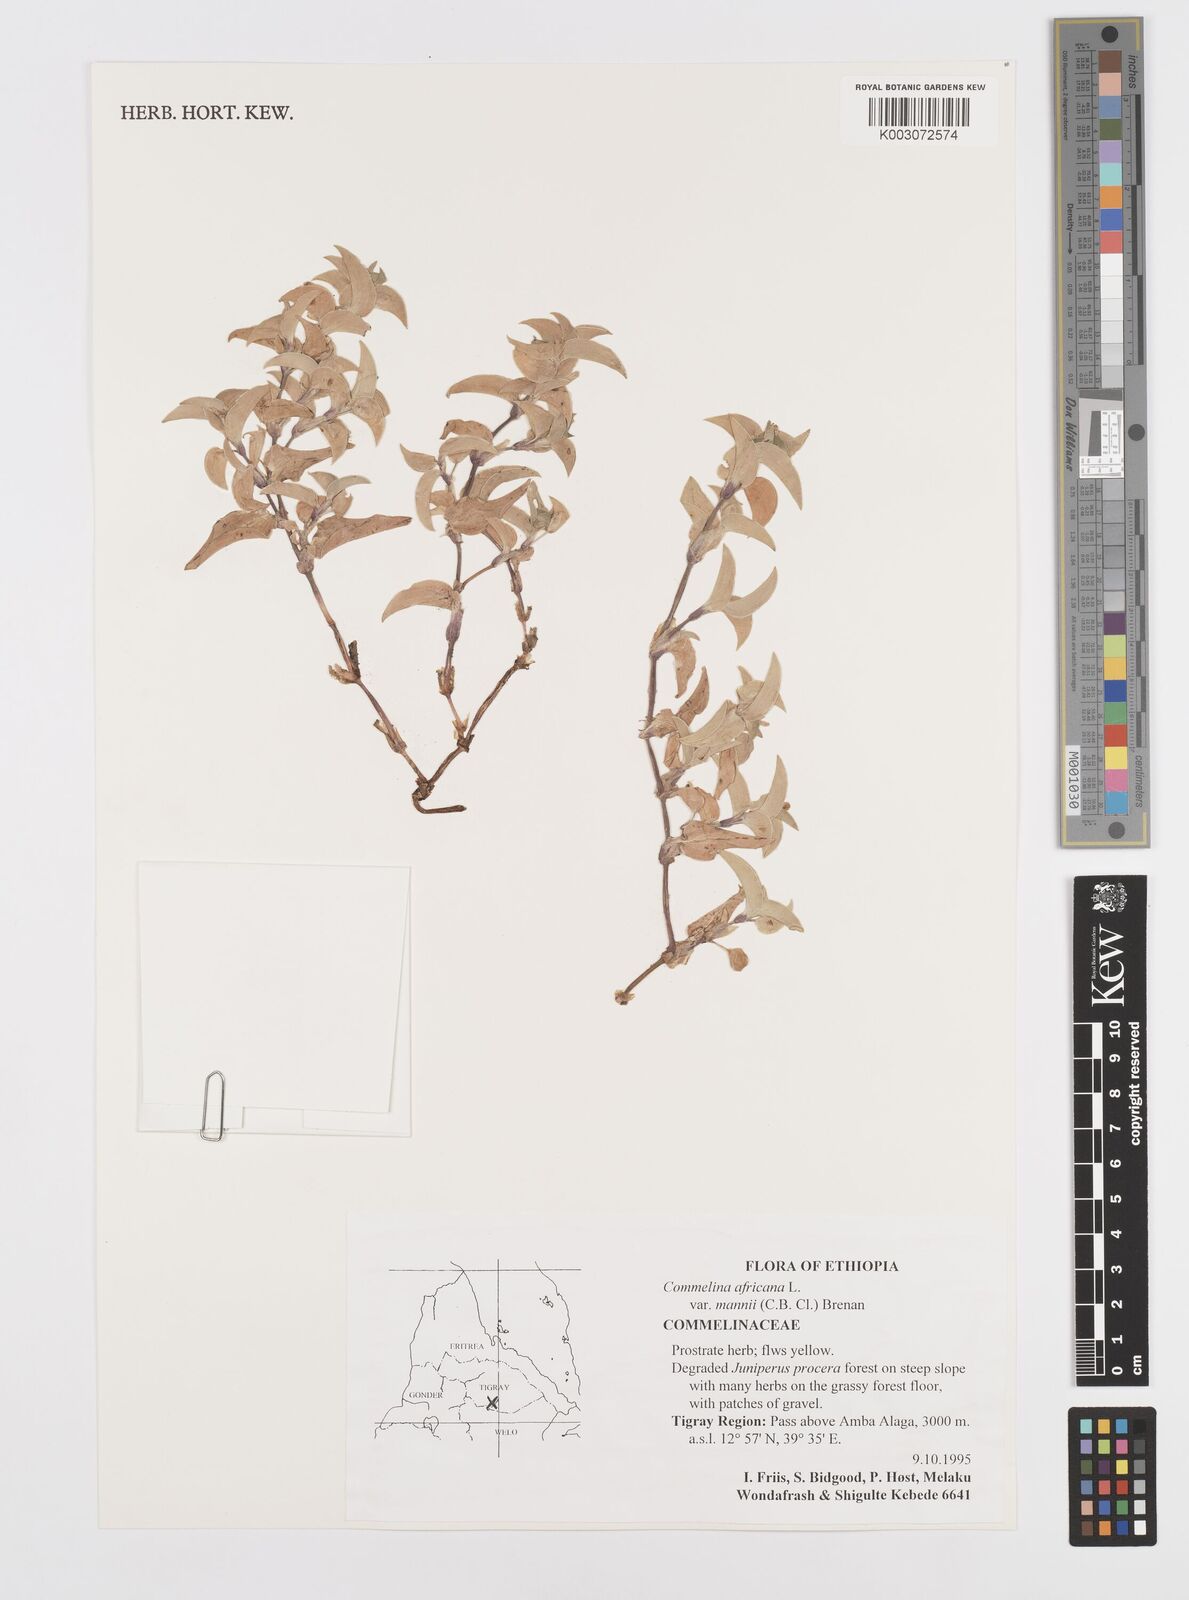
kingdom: Plantae
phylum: Tracheophyta
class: Liliopsida
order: Commelinales
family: Commelinaceae
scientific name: Commelinaceae
